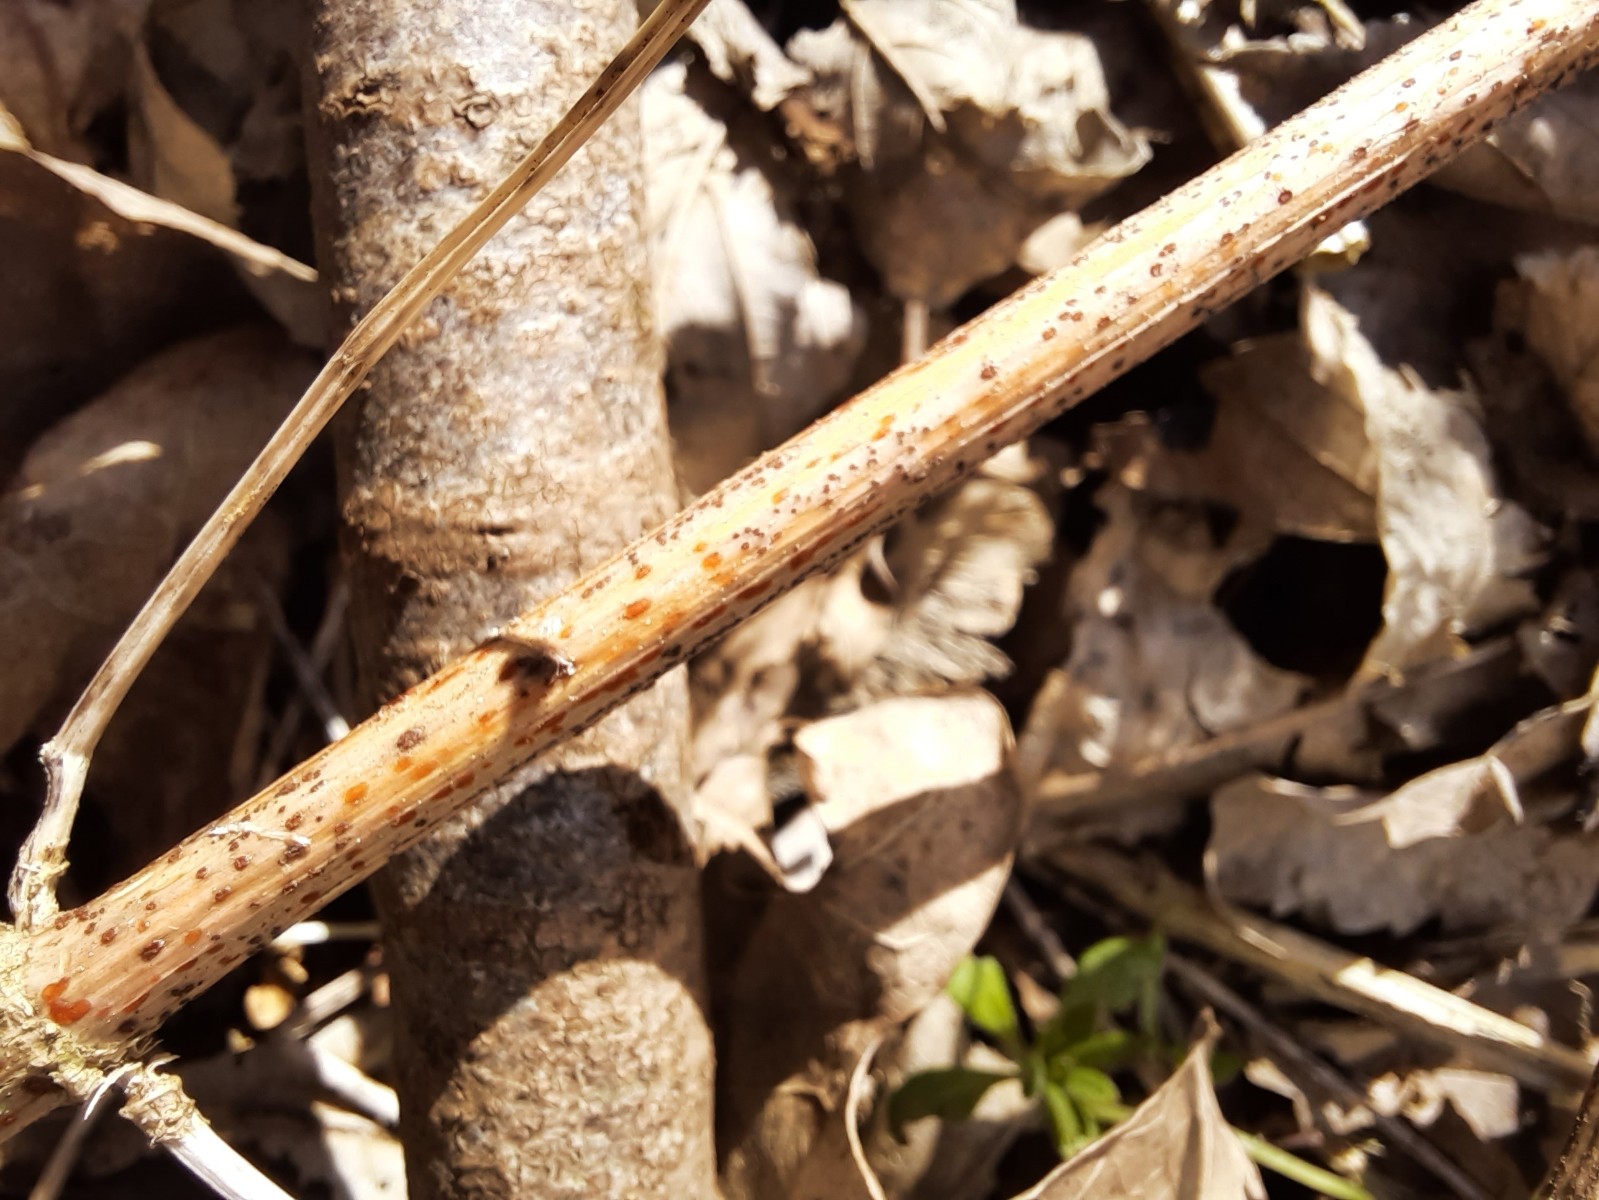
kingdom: Fungi
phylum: Ascomycota
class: Leotiomycetes
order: Helotiales
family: Calloriaceae
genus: Calloria
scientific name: Calloria urticae
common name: nælde-orangeskive
